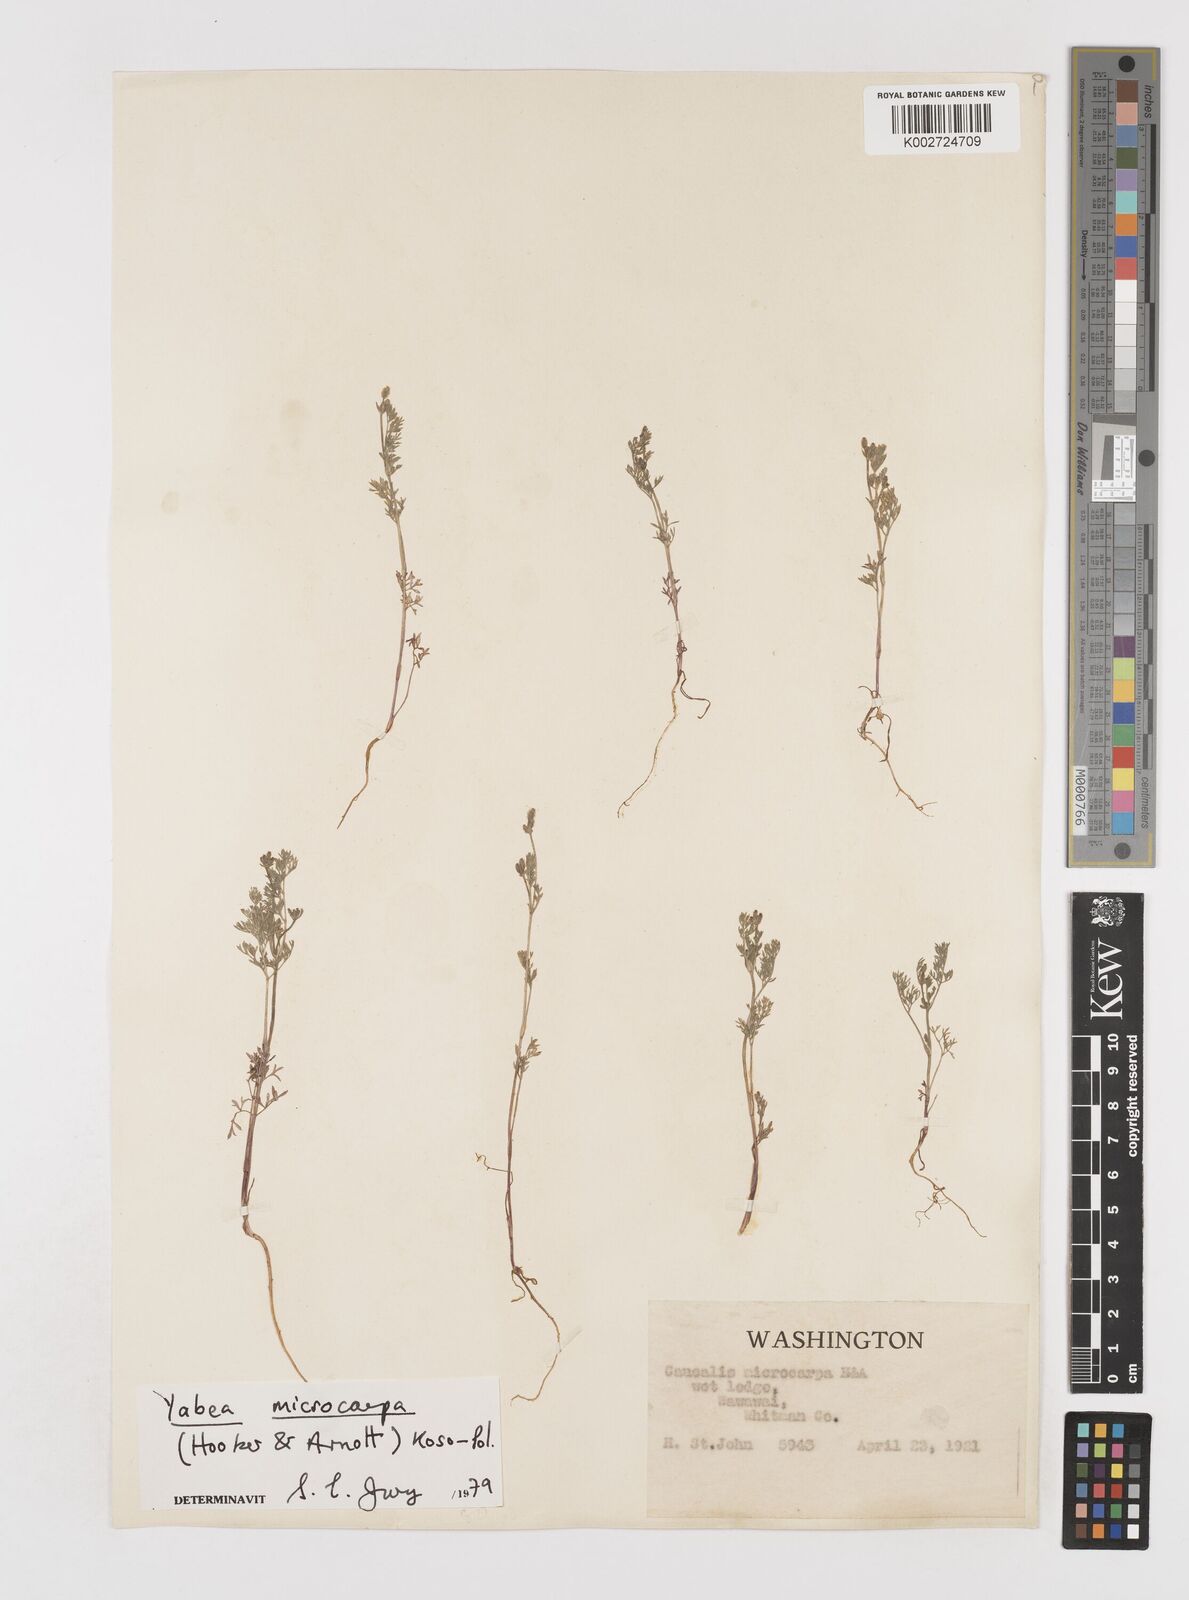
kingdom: Plantae
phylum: Tracheophyta
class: Magnoliopsida
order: Apiales
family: Apiaceae
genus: Yabea
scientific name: Yabea microcarpa
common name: False carrot
